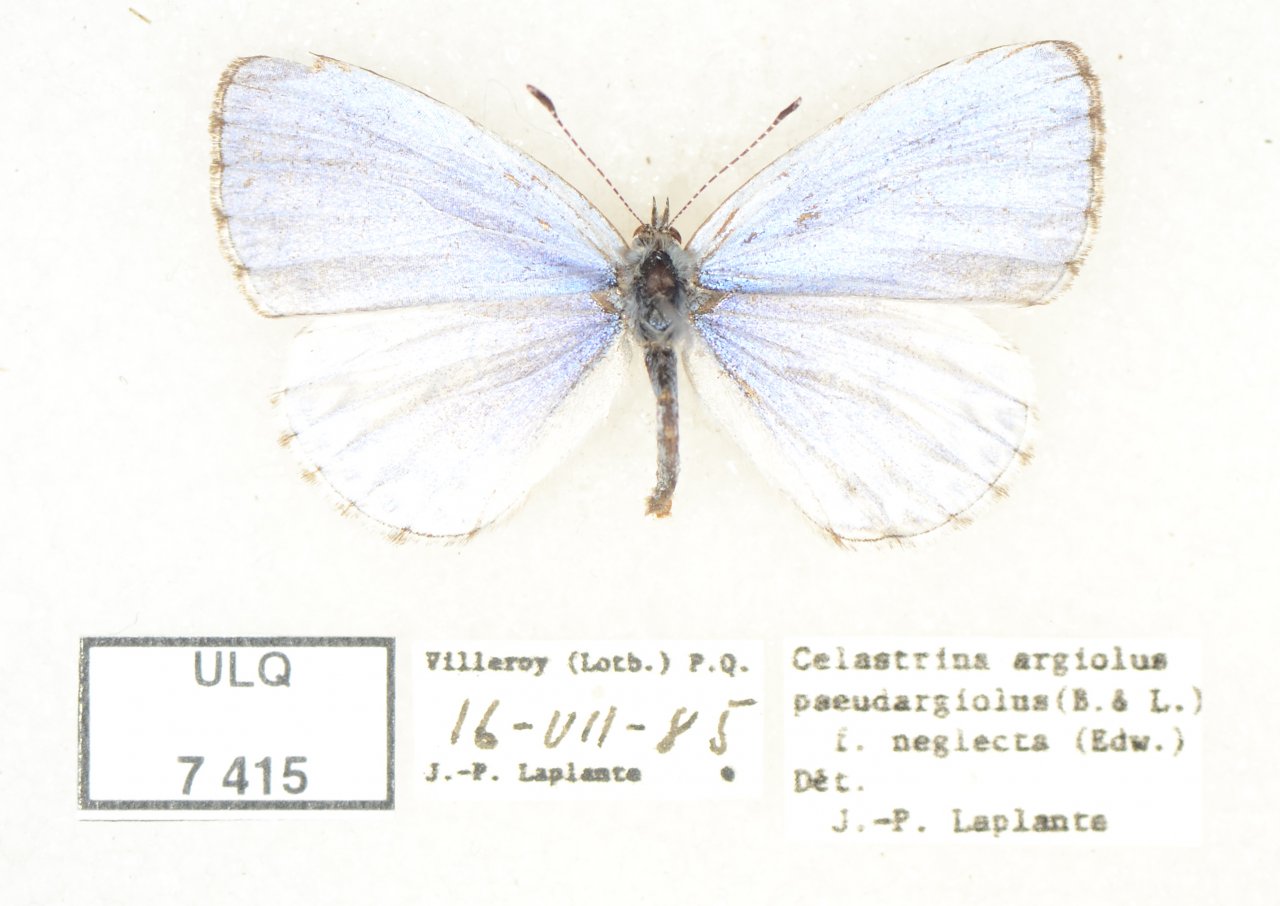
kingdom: Animalia
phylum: Arthropoda
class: Insecta
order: Lepidoptera
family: Lycaenidae
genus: Celastrina
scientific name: Celastrina lucia
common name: Northern Spring Azure
